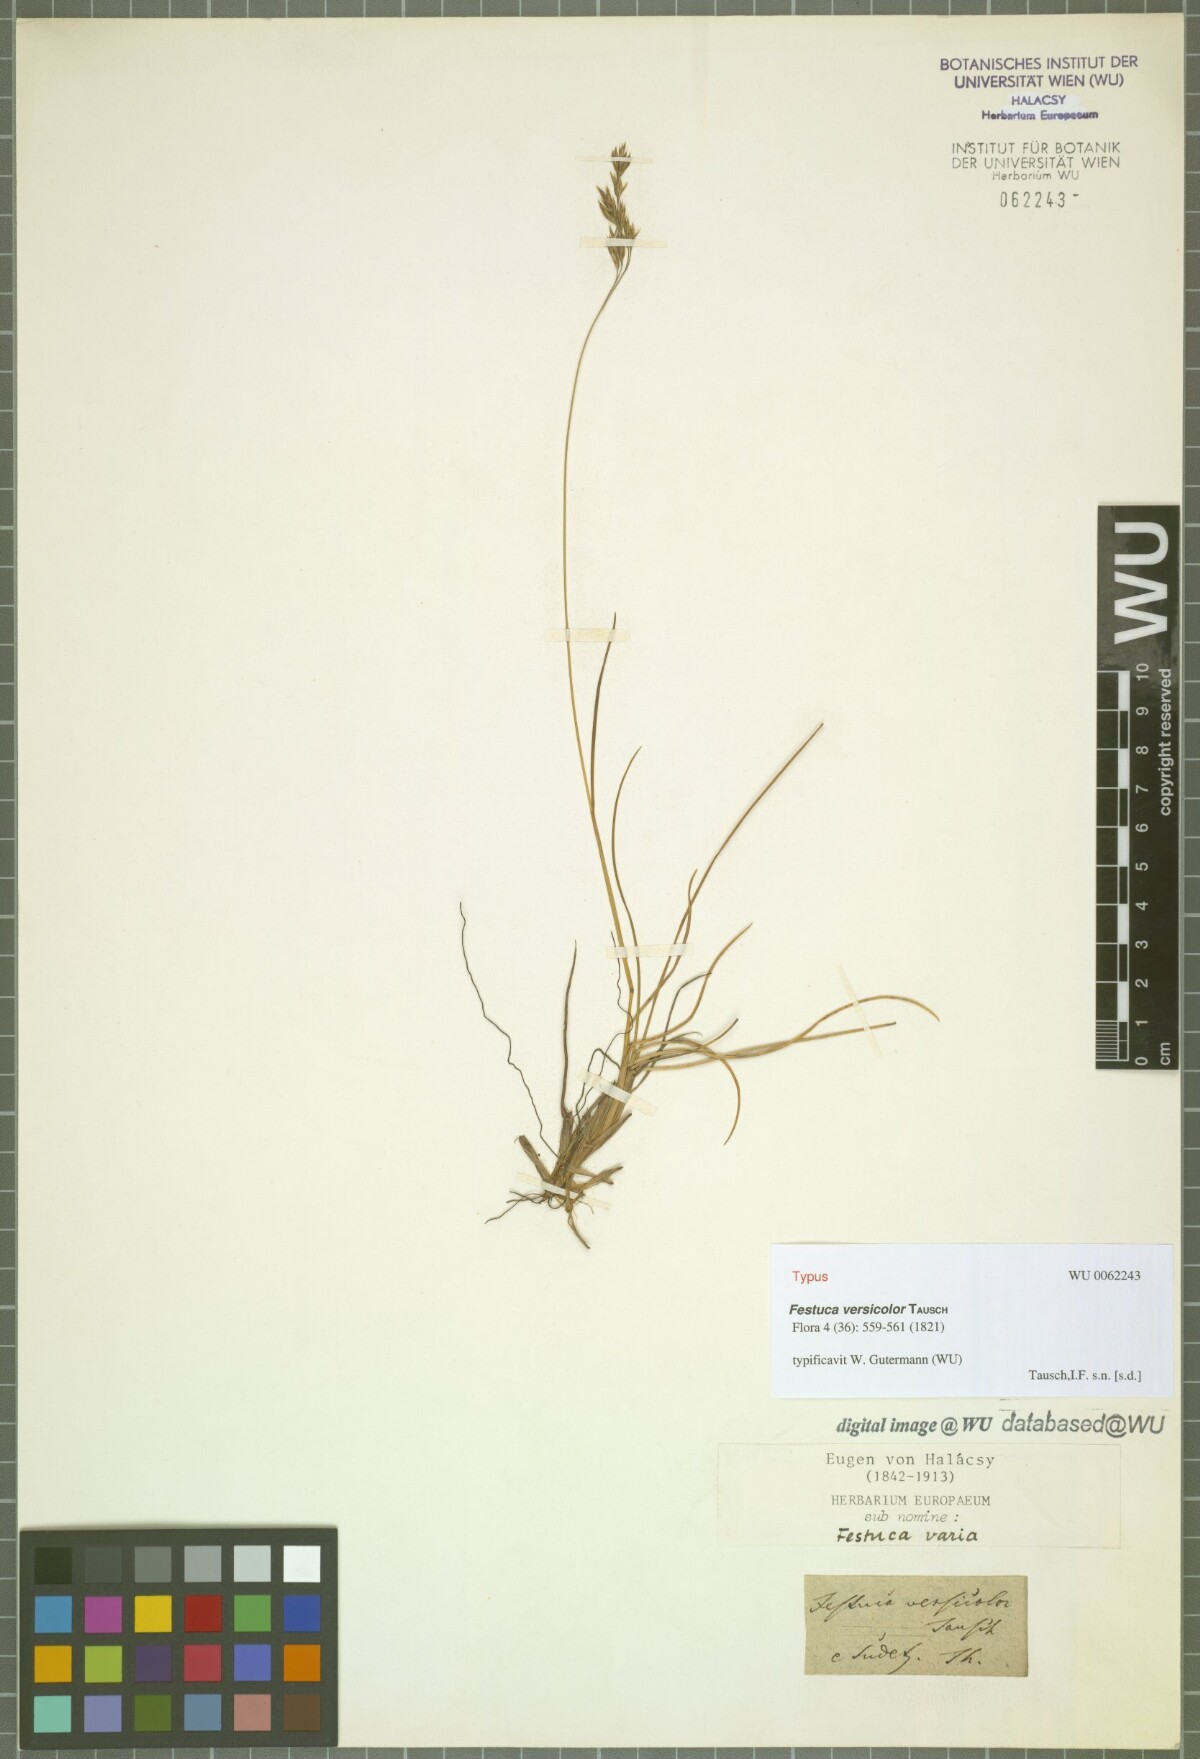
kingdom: Plantae
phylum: Tracheophyta
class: Liliopsida
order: Poales
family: Poaceae
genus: Festuca
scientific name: Festuca versicolor
